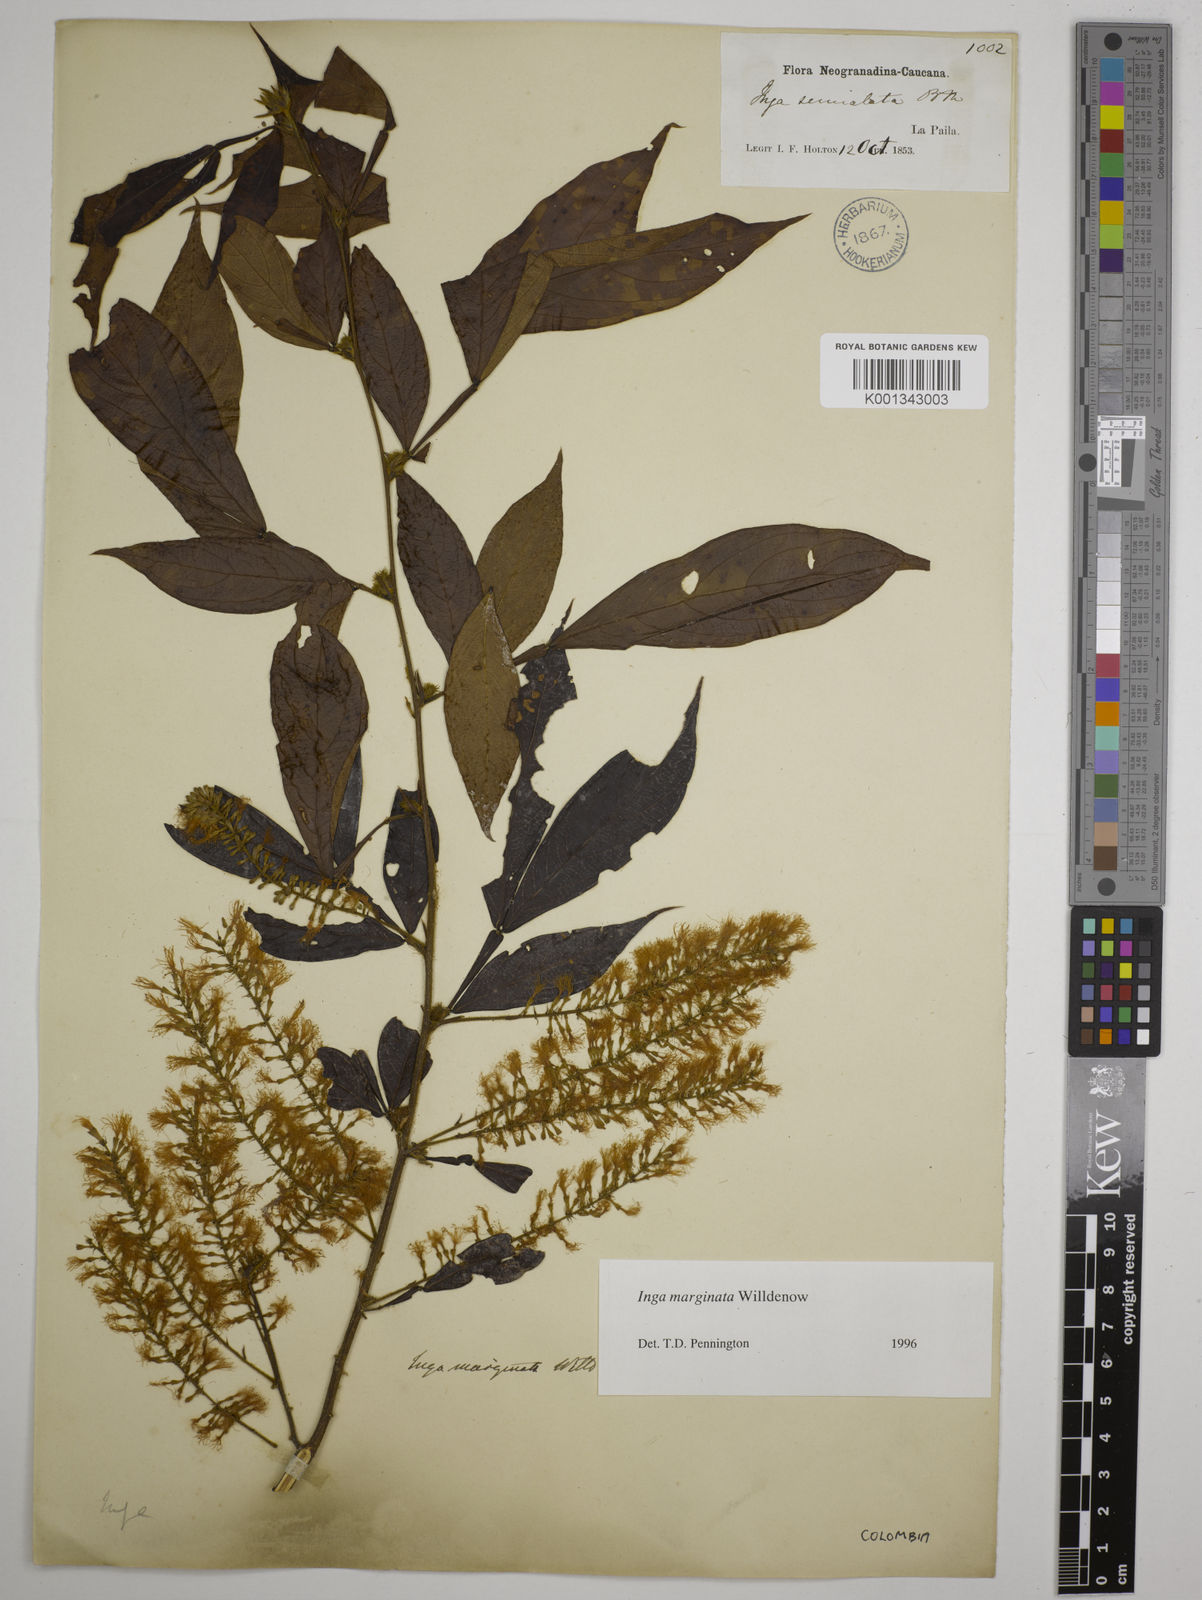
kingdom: Plantae
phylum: Tracheophyta
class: Magnoliopsida
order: Fabales
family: Fabaceae
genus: Inga
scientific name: Inga marginata
